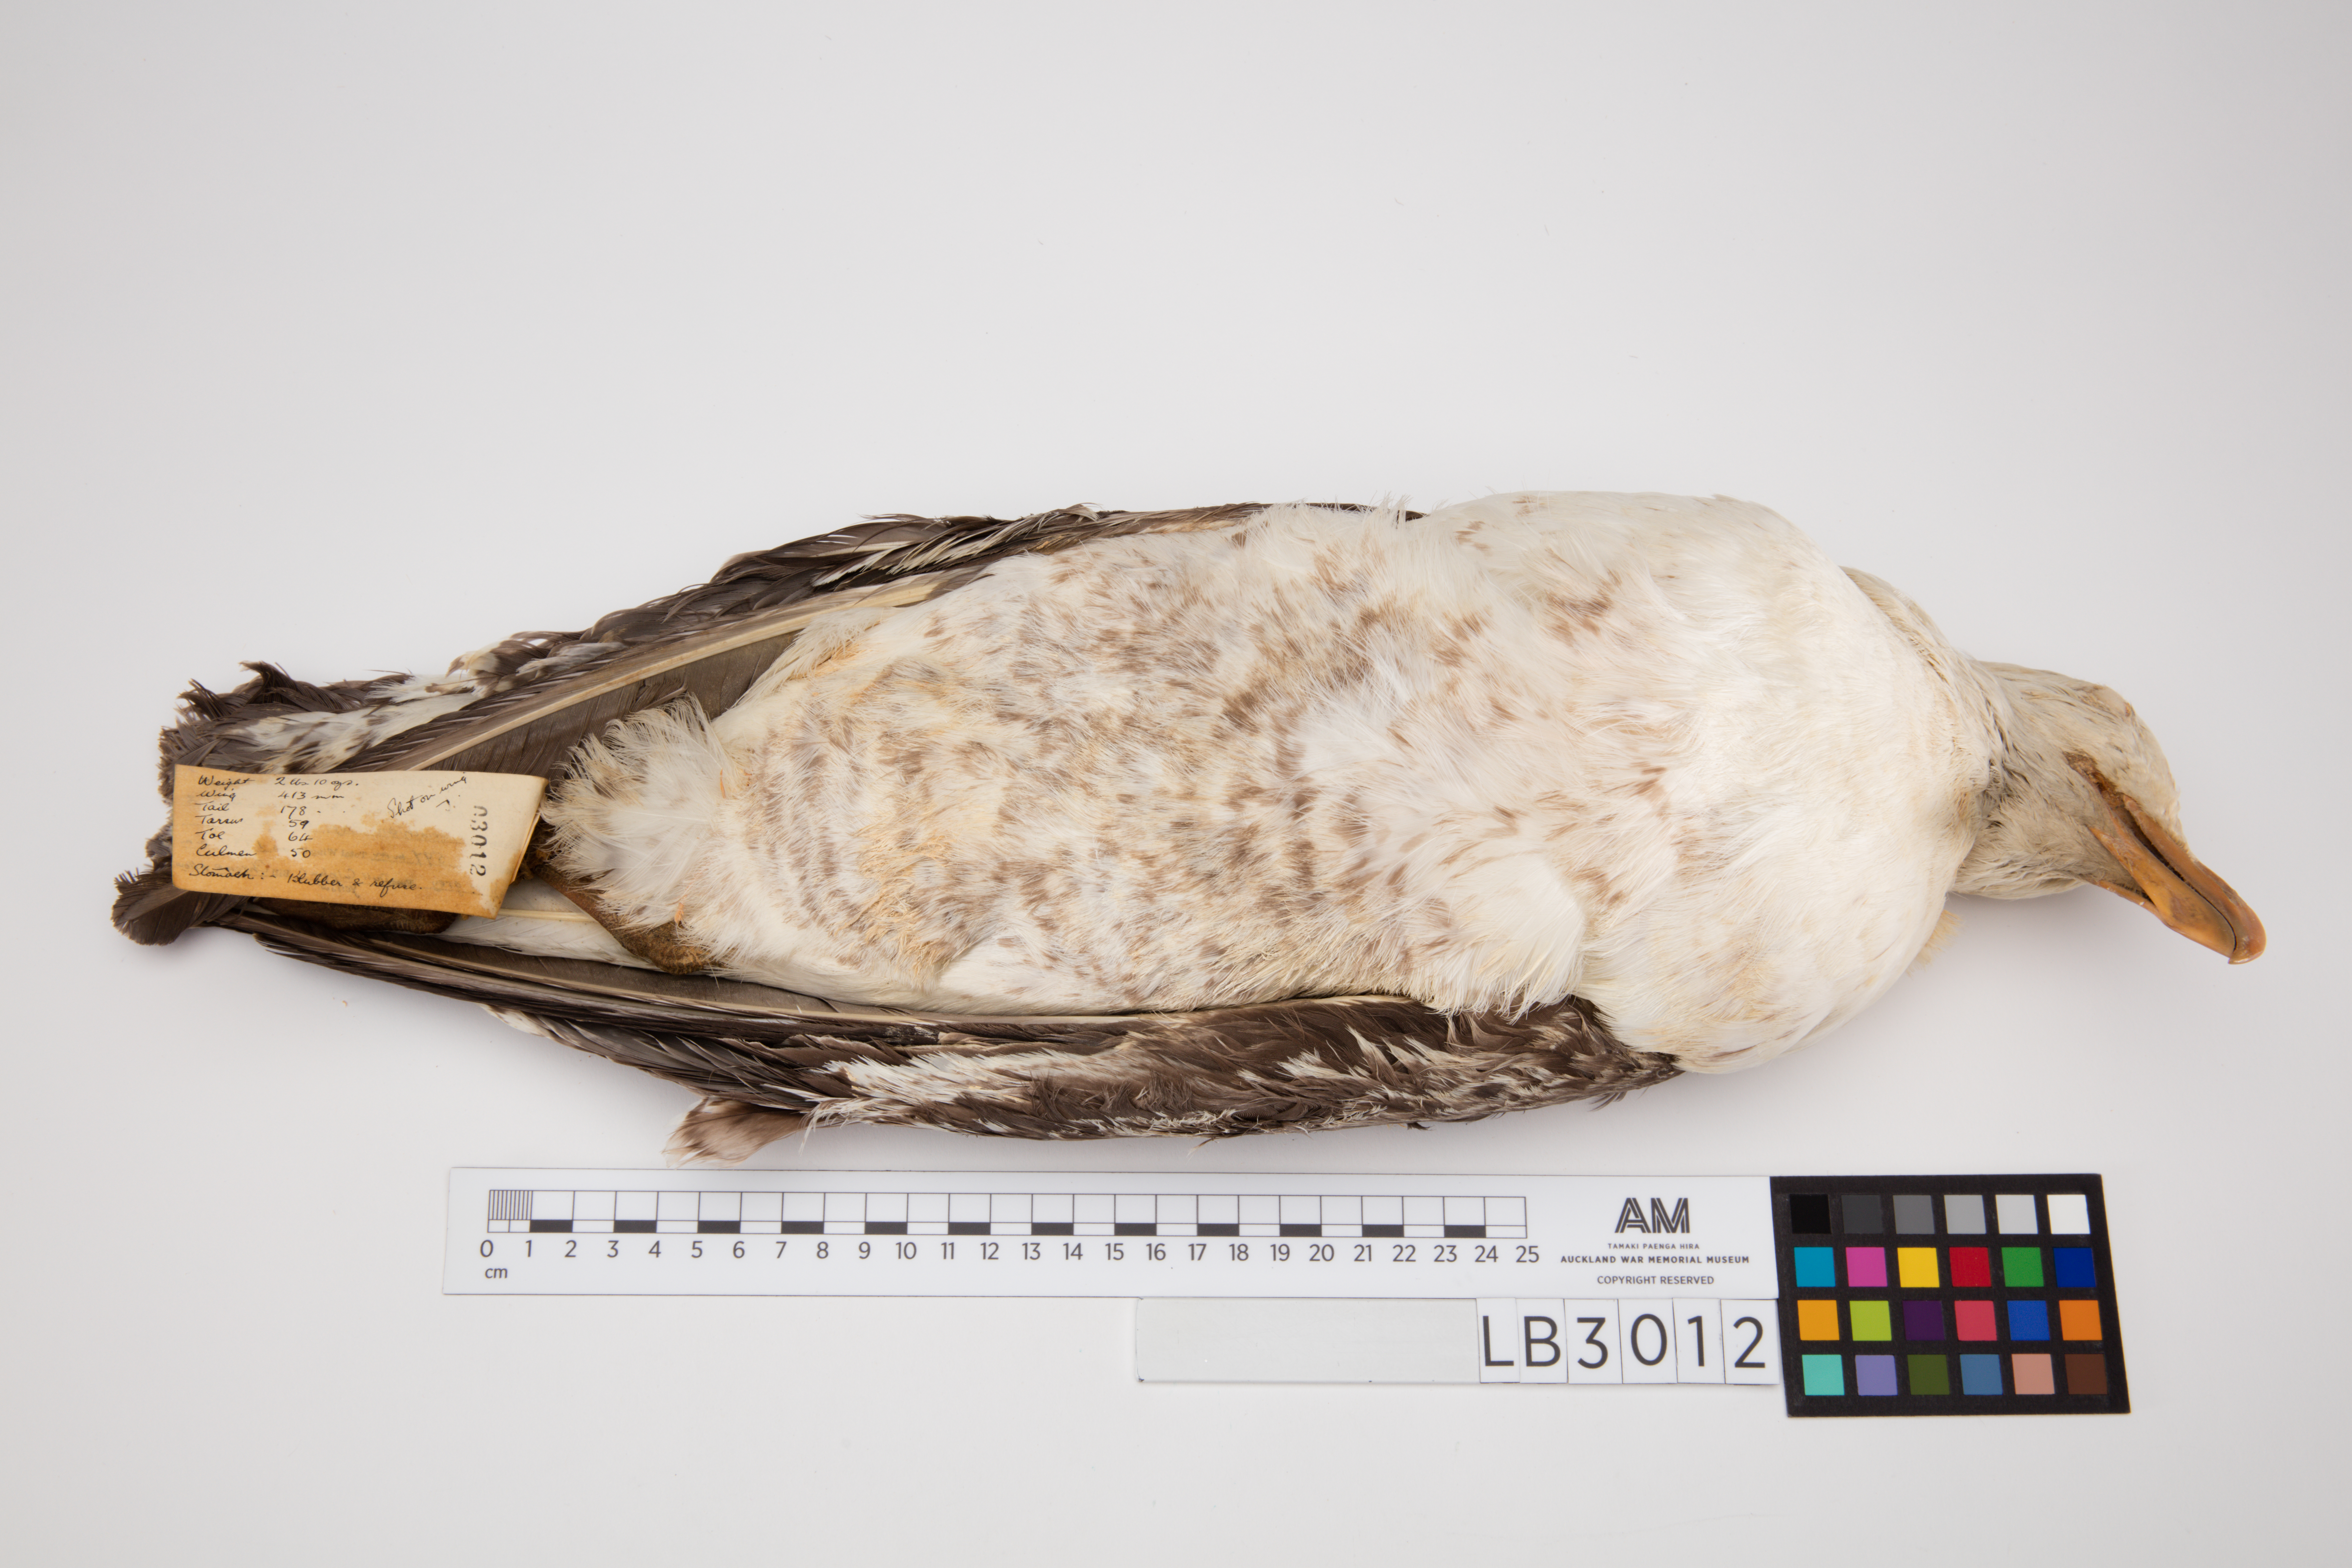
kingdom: Animalia
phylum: Chordata
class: Aves
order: Charadriiformes
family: Laridae
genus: Larus
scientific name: Larus dominicanus
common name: Kelp gull
